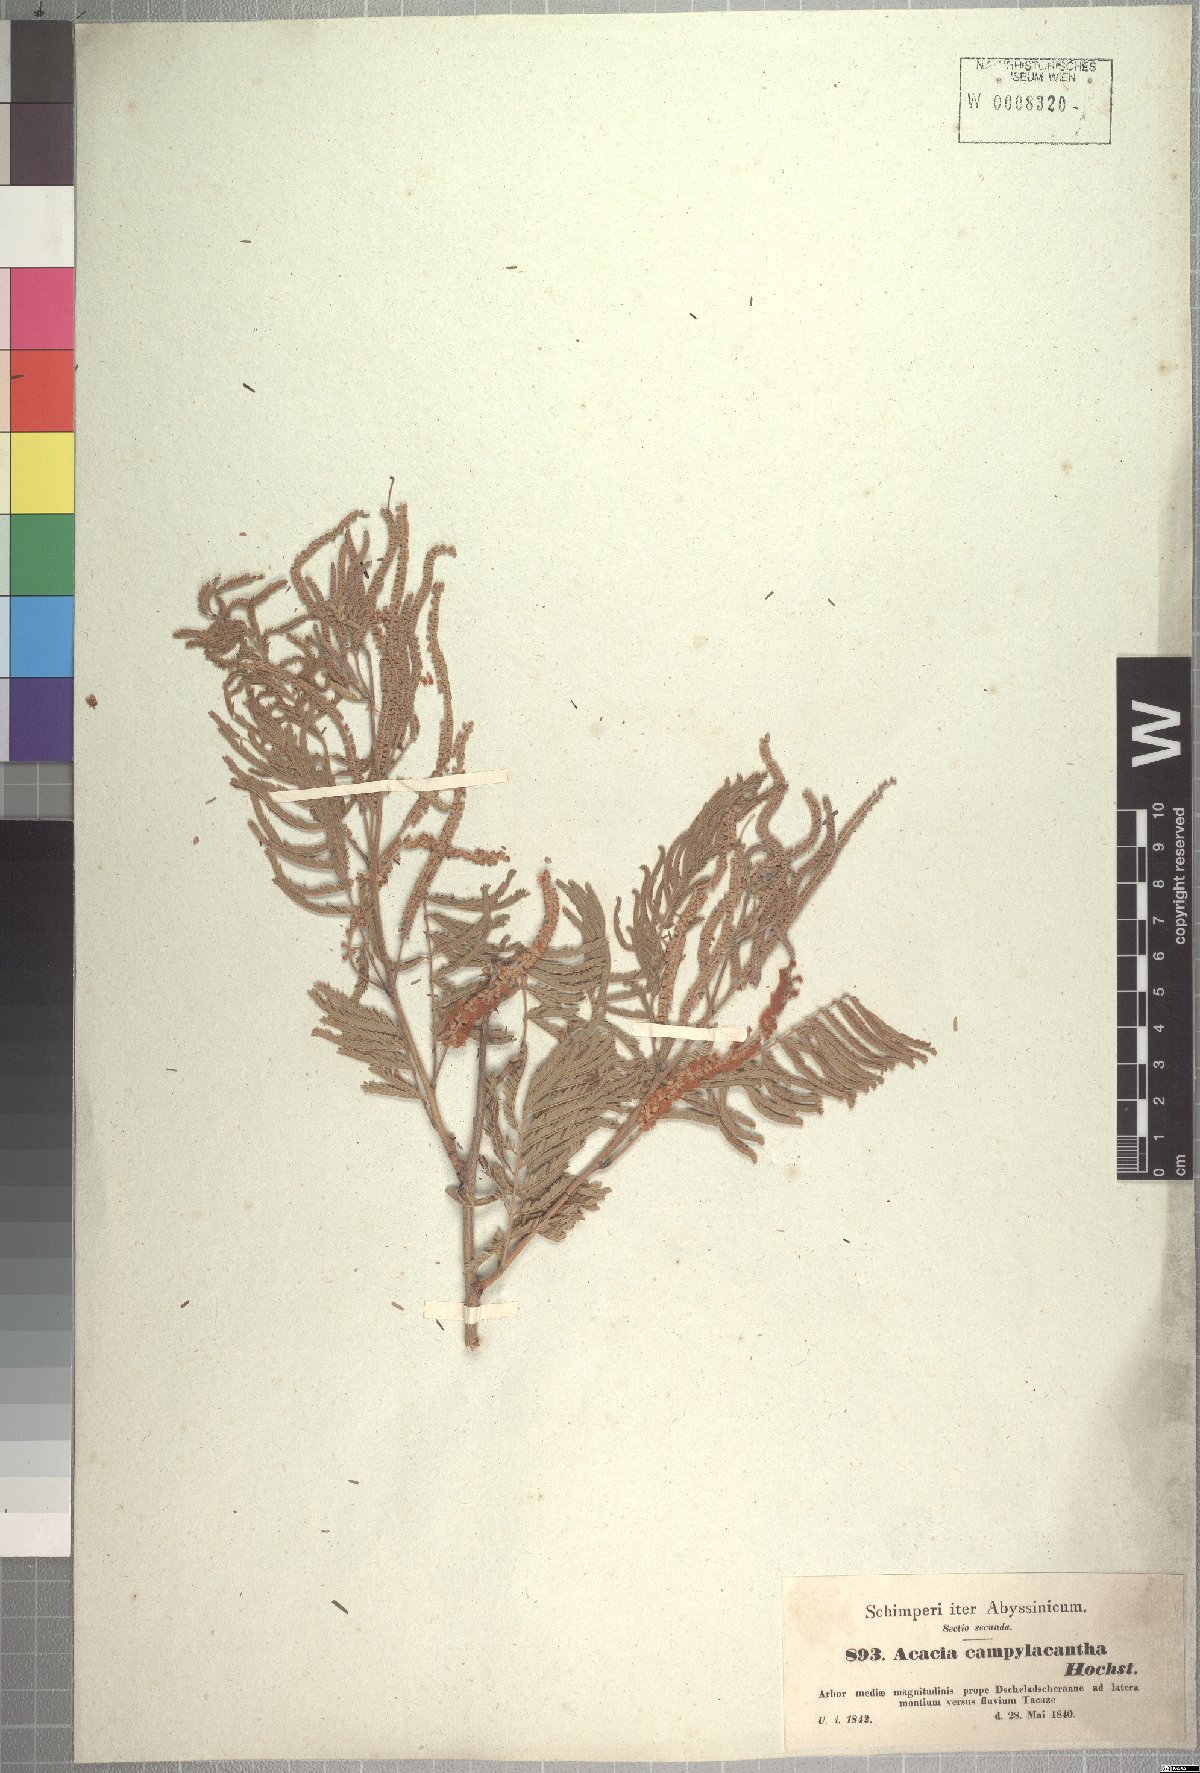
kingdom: Plantae
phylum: Tracheophyta
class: Magnoliopsida
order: Fabales
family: Fabaceae
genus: Senegalia
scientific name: Senegalia polyacantha
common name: Whitethorn
